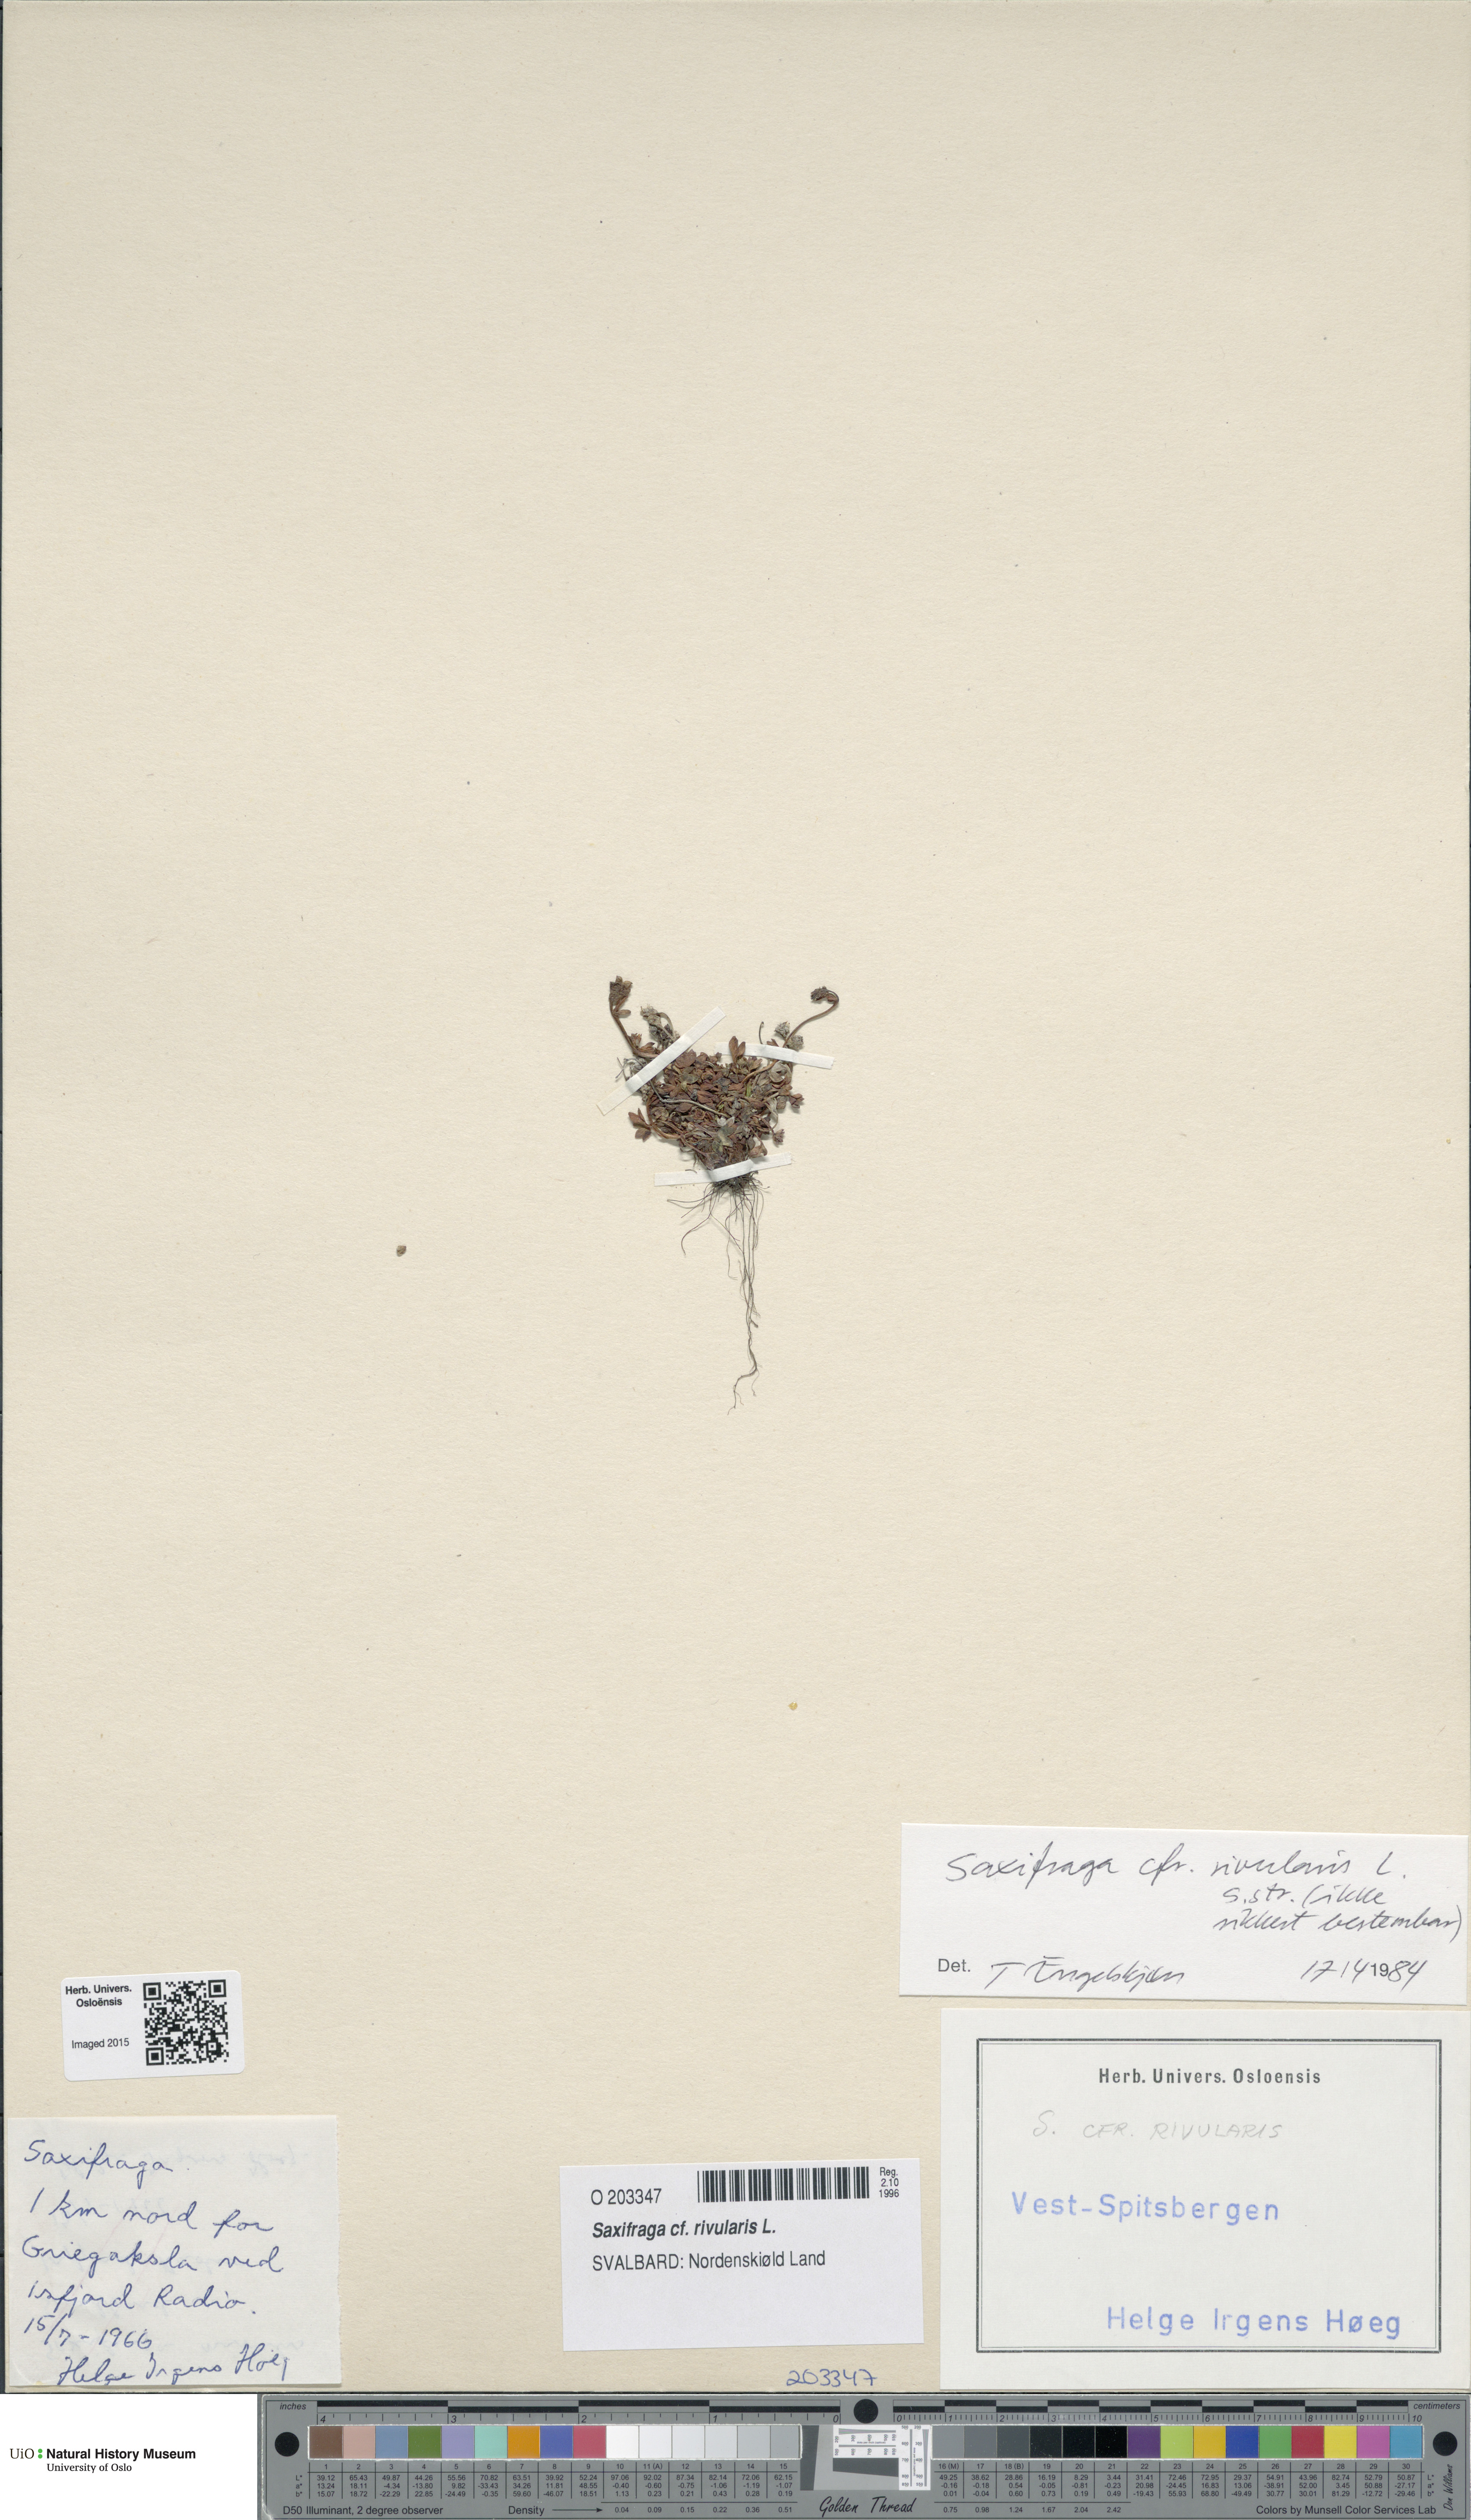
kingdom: Plantae
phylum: Tracheophyta
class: Magnoliopsida
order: Saxifragales
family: Saxifragaceae
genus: Saxifraga
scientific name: Saxifraga rivularis
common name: Highland saxifrage
